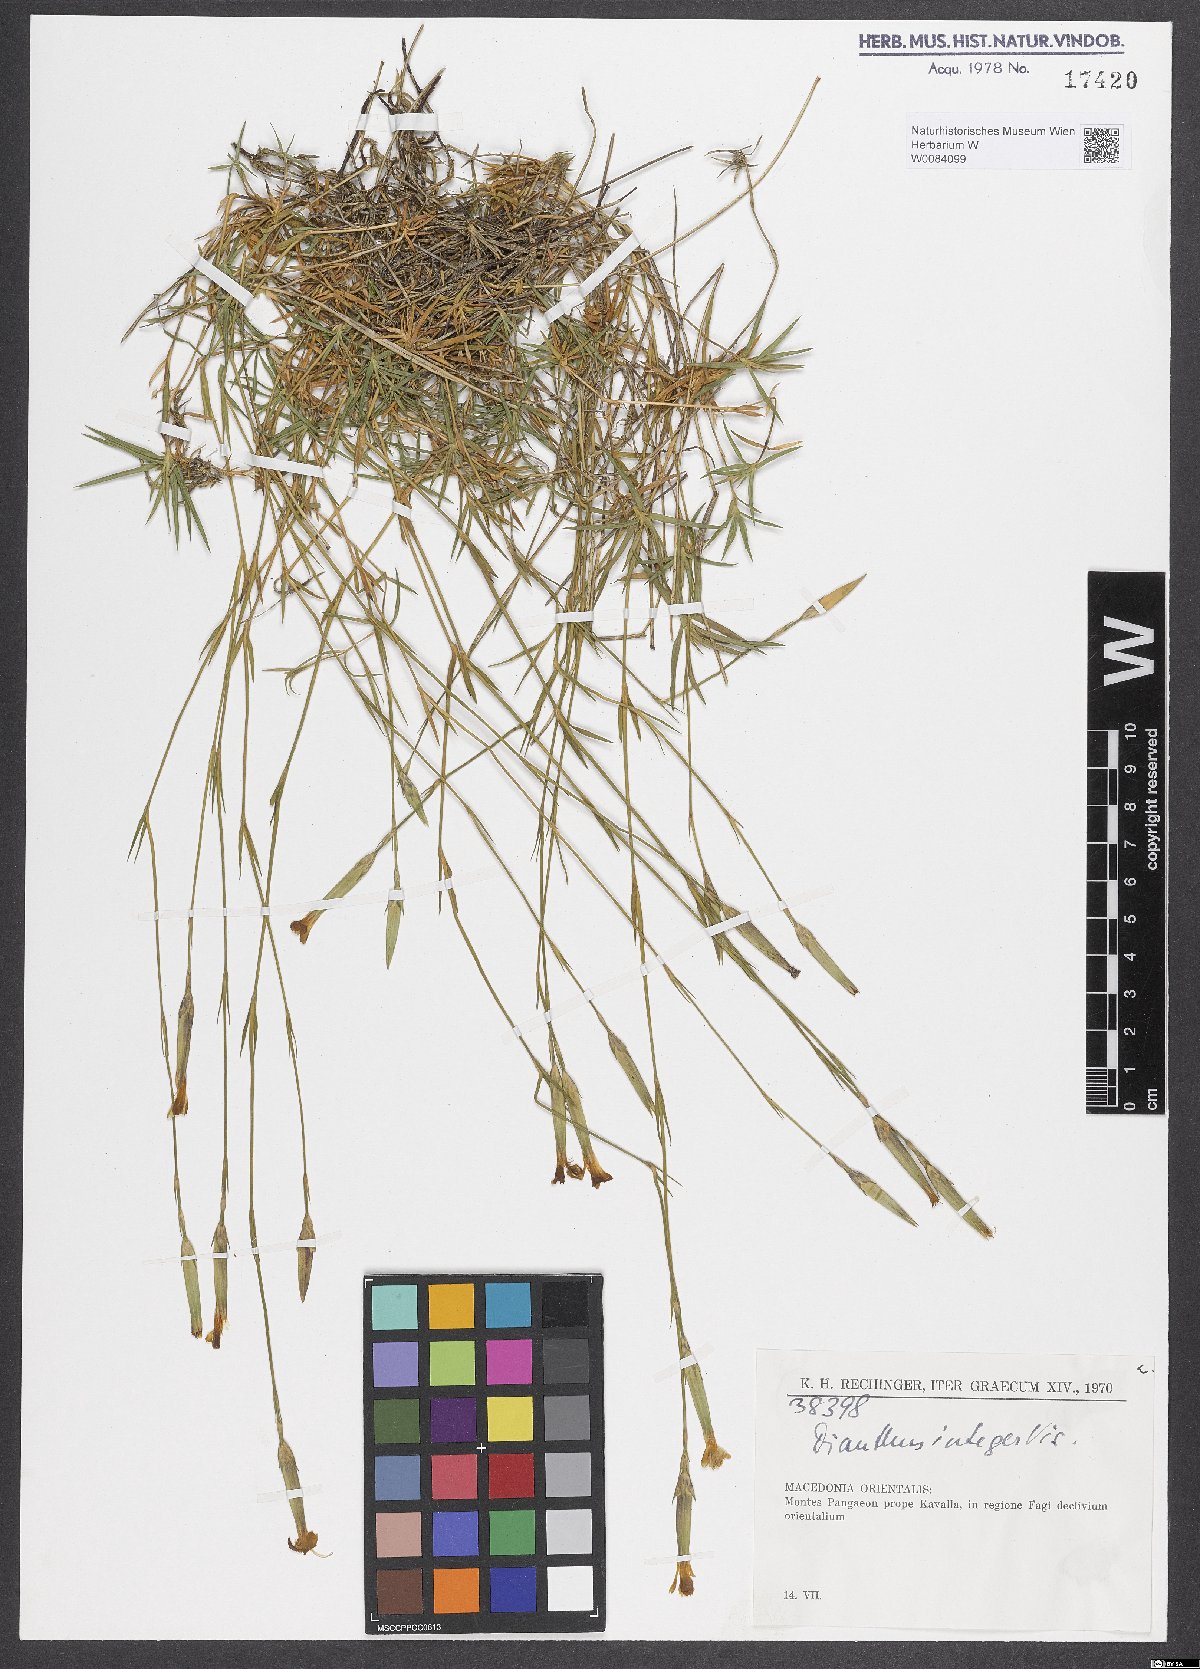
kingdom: Plantae
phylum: Tracheophyta
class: Magnoliopsida
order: Caryophyllales
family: Caryophyllaceae
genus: Dianthus
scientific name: Dianthus integer
